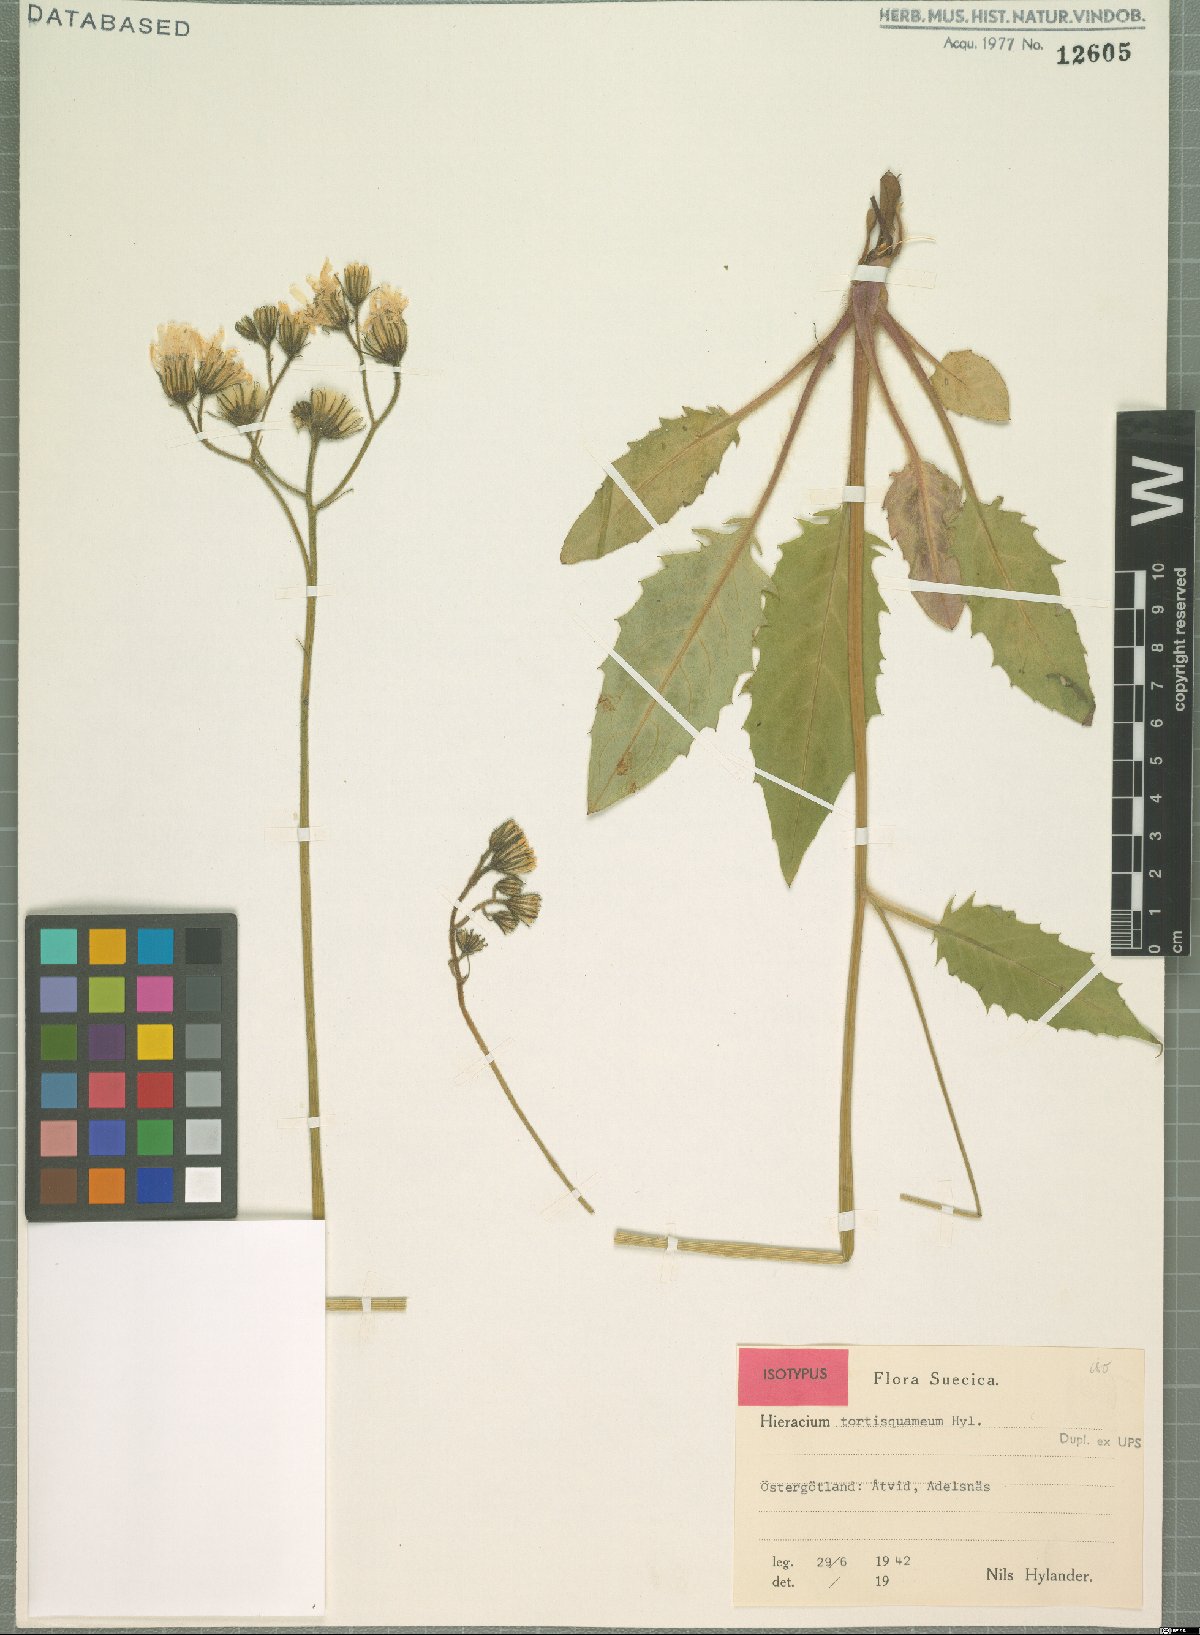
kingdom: Plantae
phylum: Tracheophyta
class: Magnoliopsida
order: Asterales
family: Asteraceae
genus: Hieracium
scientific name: Hieracium murorum
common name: Wall hawkweed
